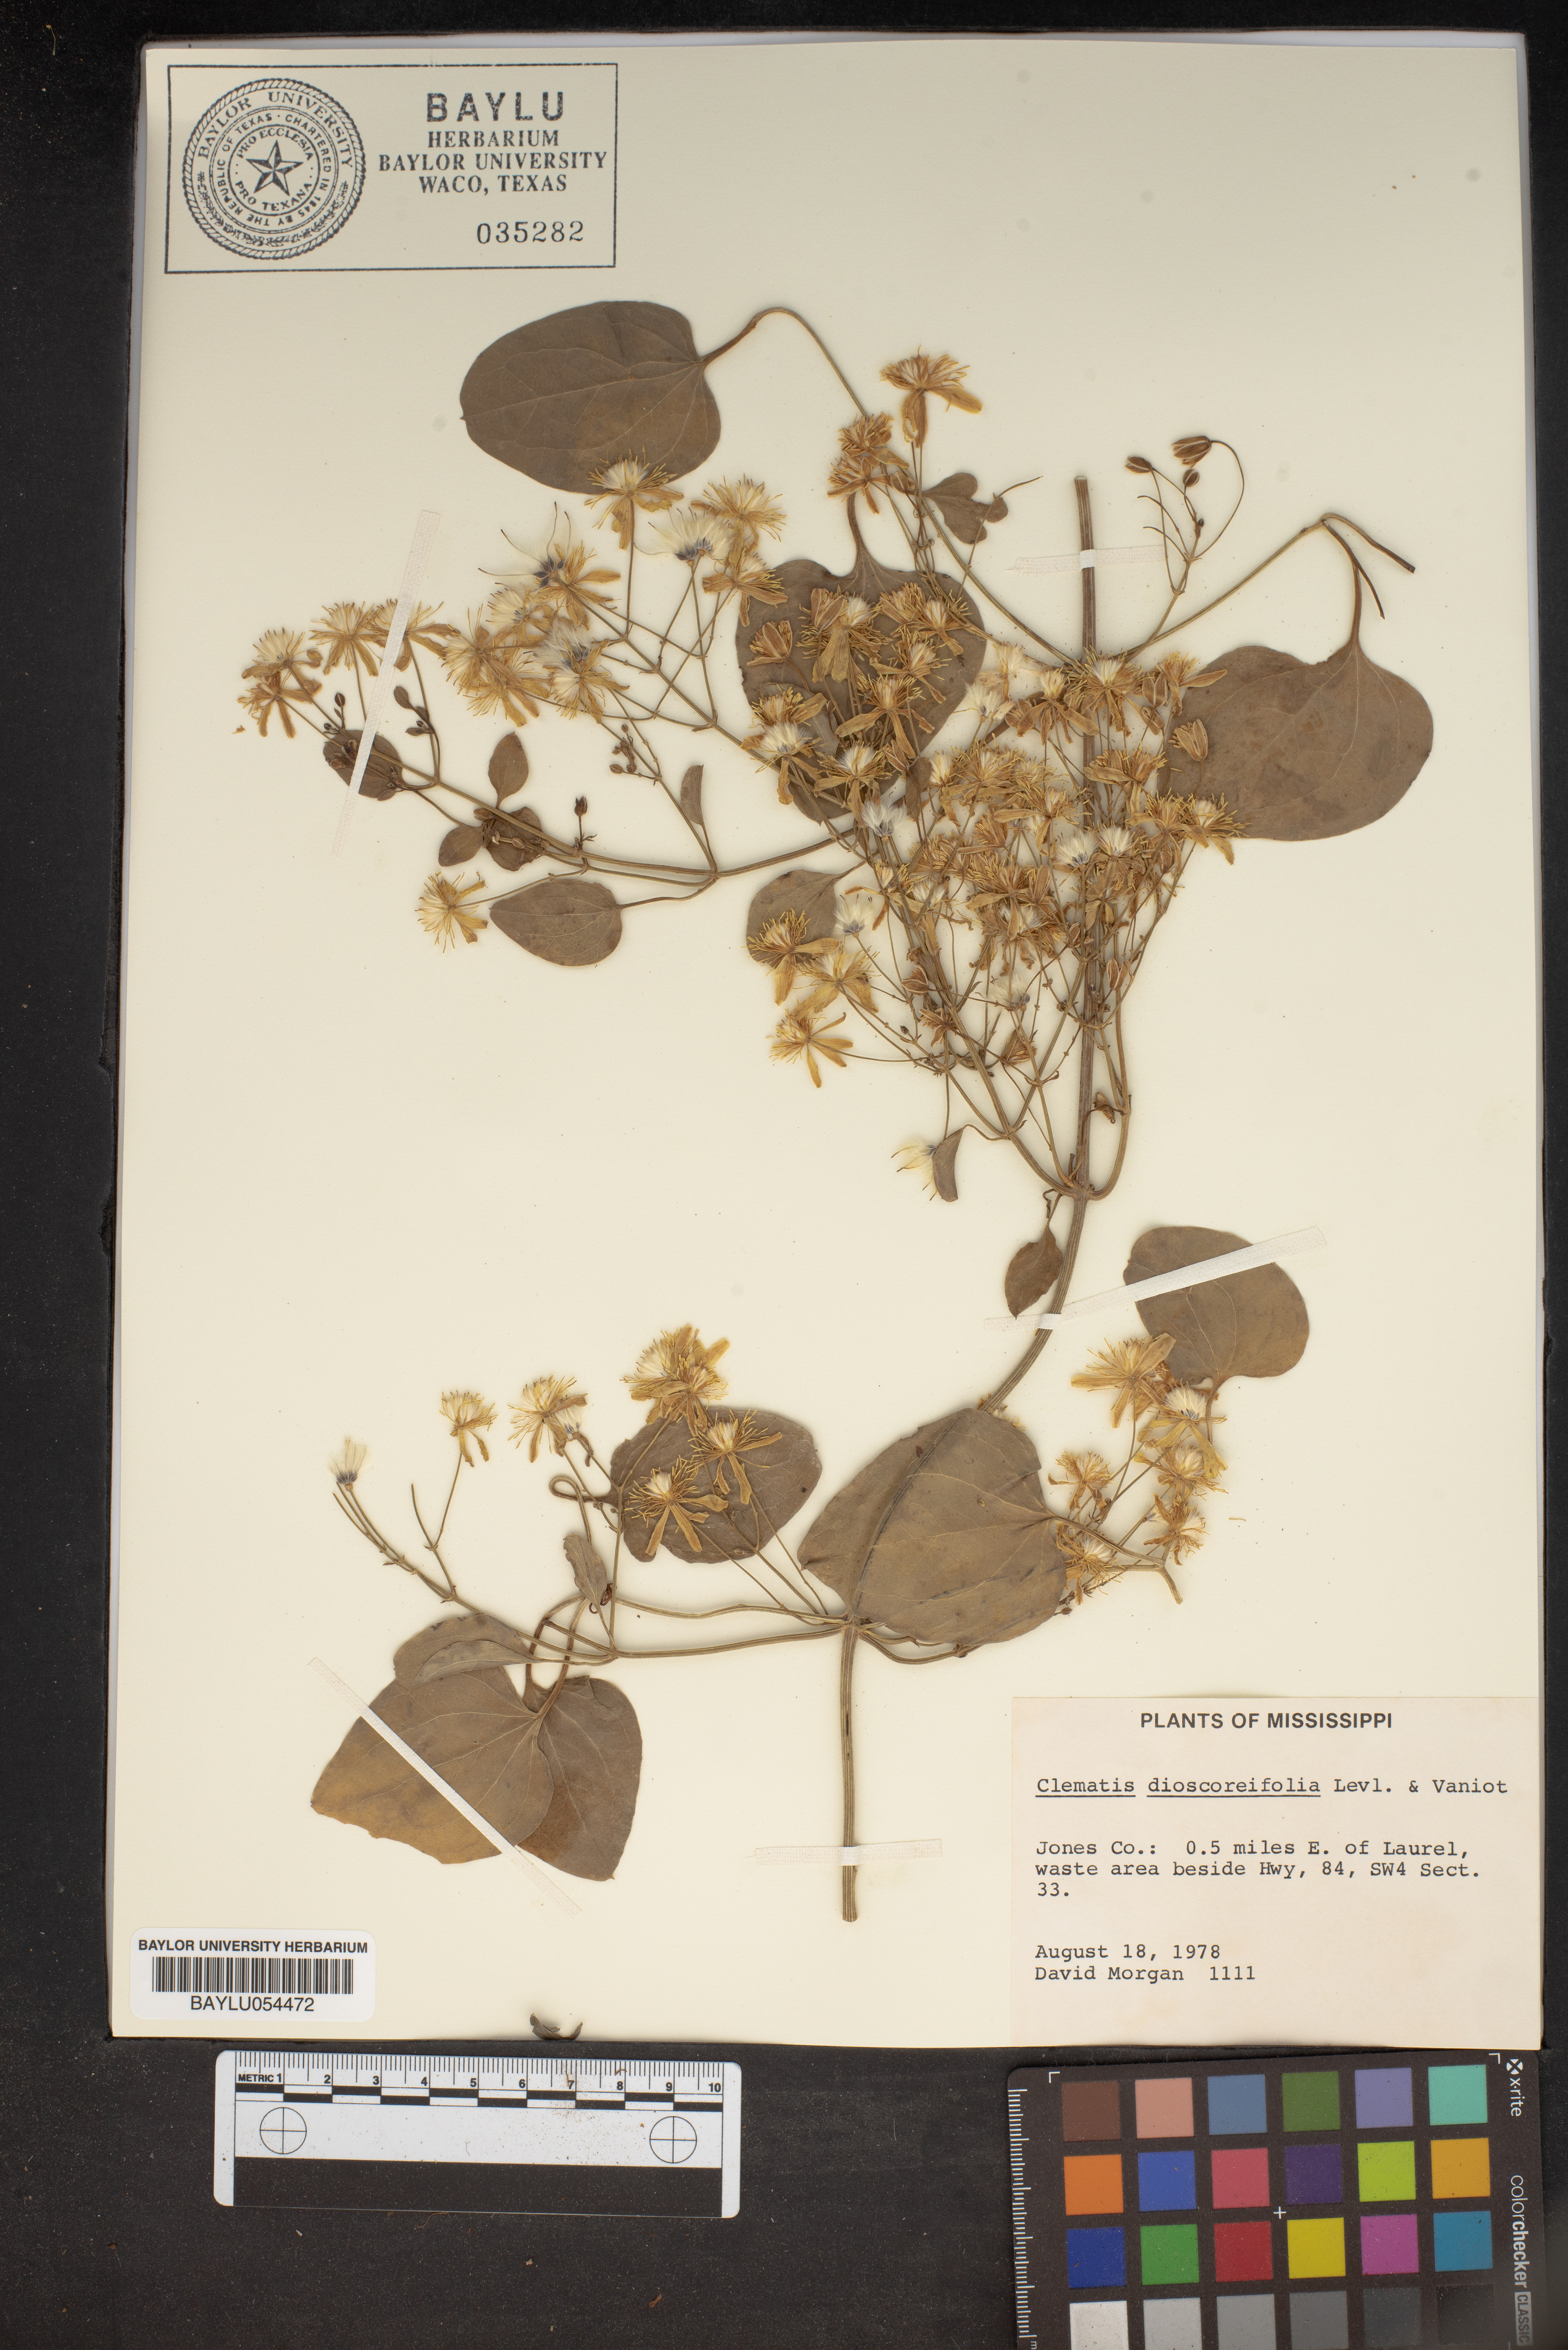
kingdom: Plantae
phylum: Tracheophyta
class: Magnoliopsida
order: Ranunculales
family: Ranunculaceae
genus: Clematis
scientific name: Clematis terniflora
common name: Sweet autumn clematis
